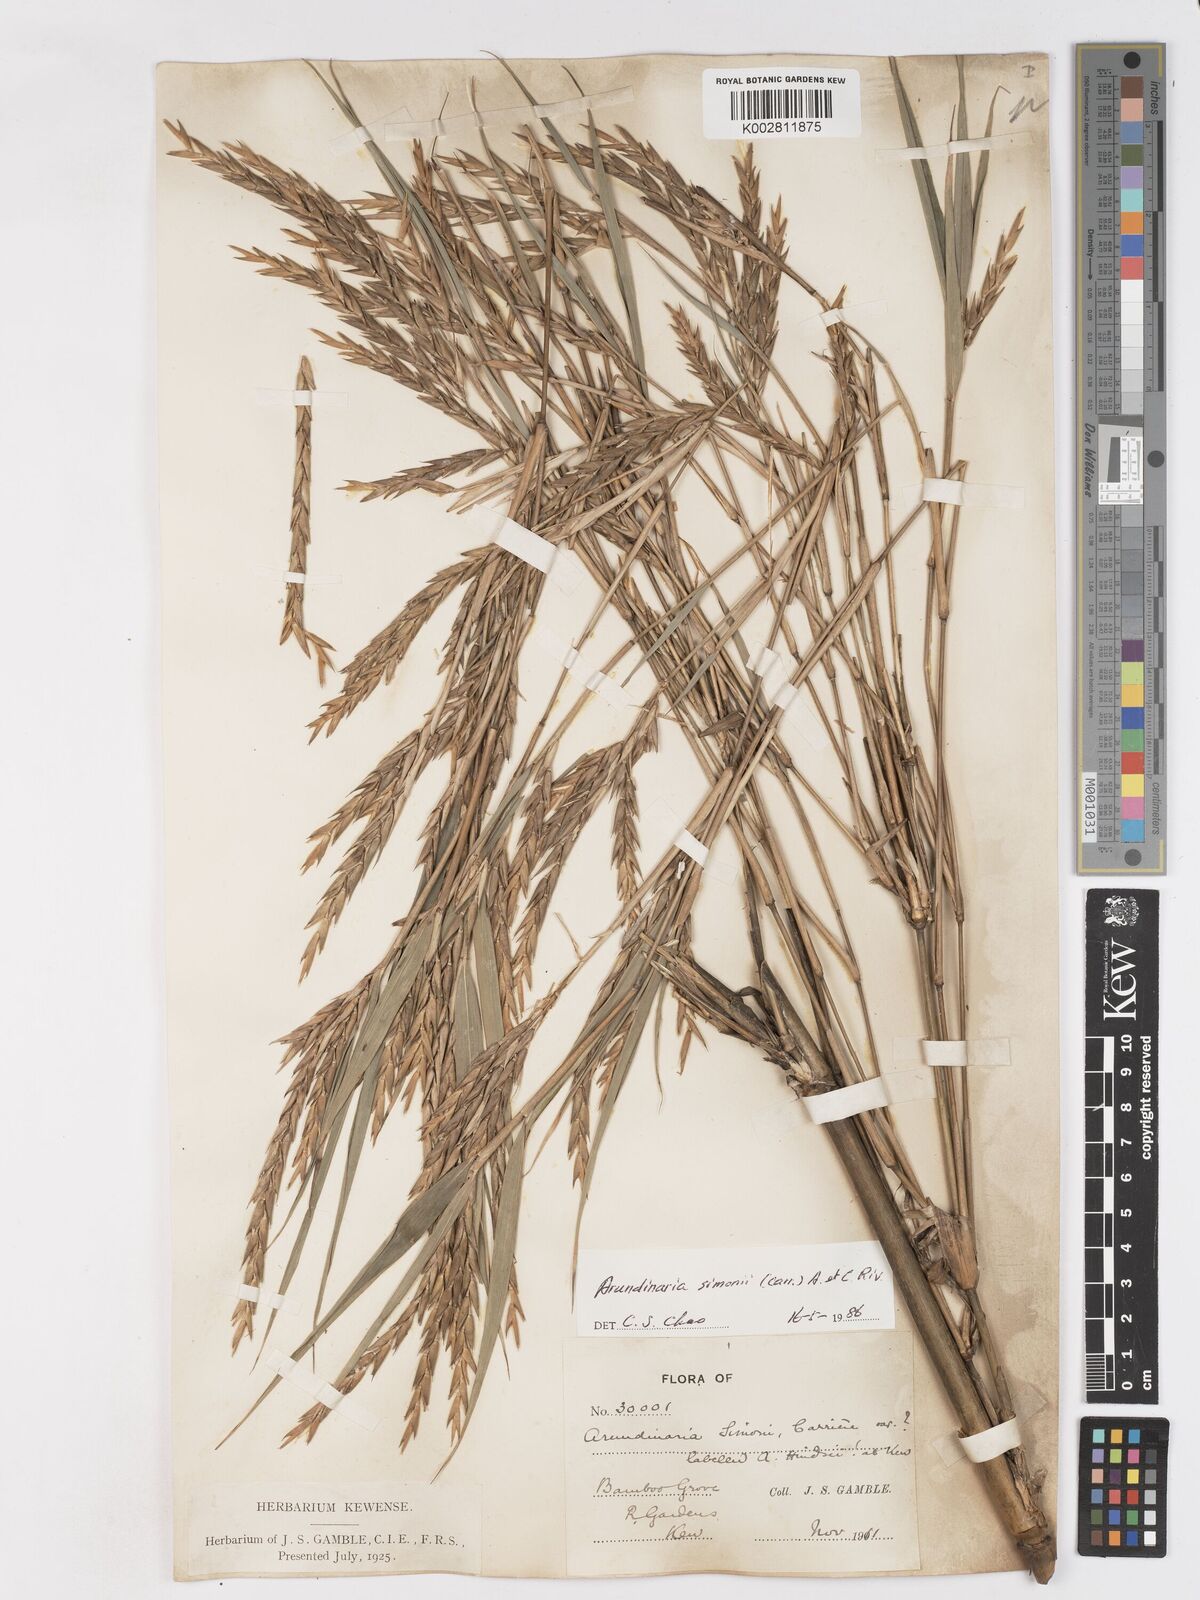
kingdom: Plantae
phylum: Tracheophyta
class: Liliopsida
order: Poales
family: Poaceae
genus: Pleioblastus
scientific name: Pleioblastus simonii
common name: Simon bamboo
